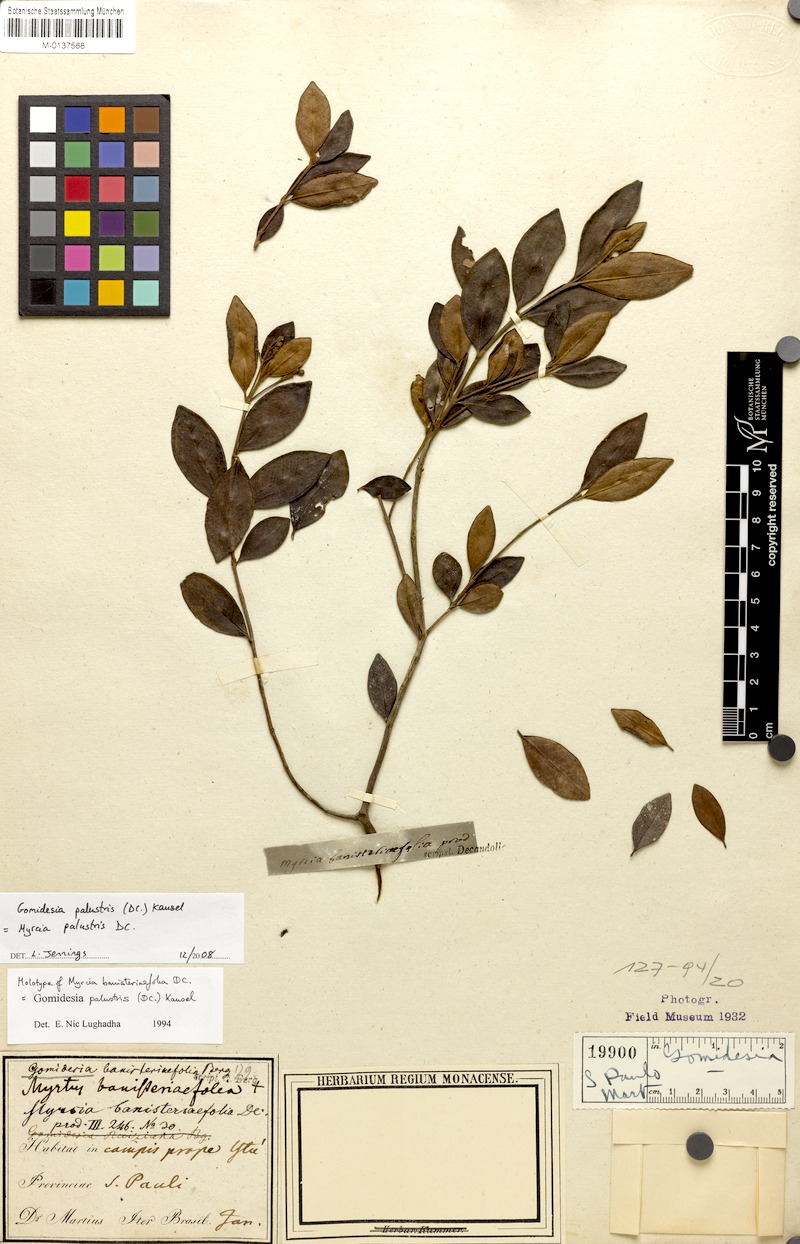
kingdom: Plantae
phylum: Tracheophyta
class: Magnoliopsida
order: Myrtales
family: Myrtaceae
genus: Myrcia
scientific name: Myrcia palustris
